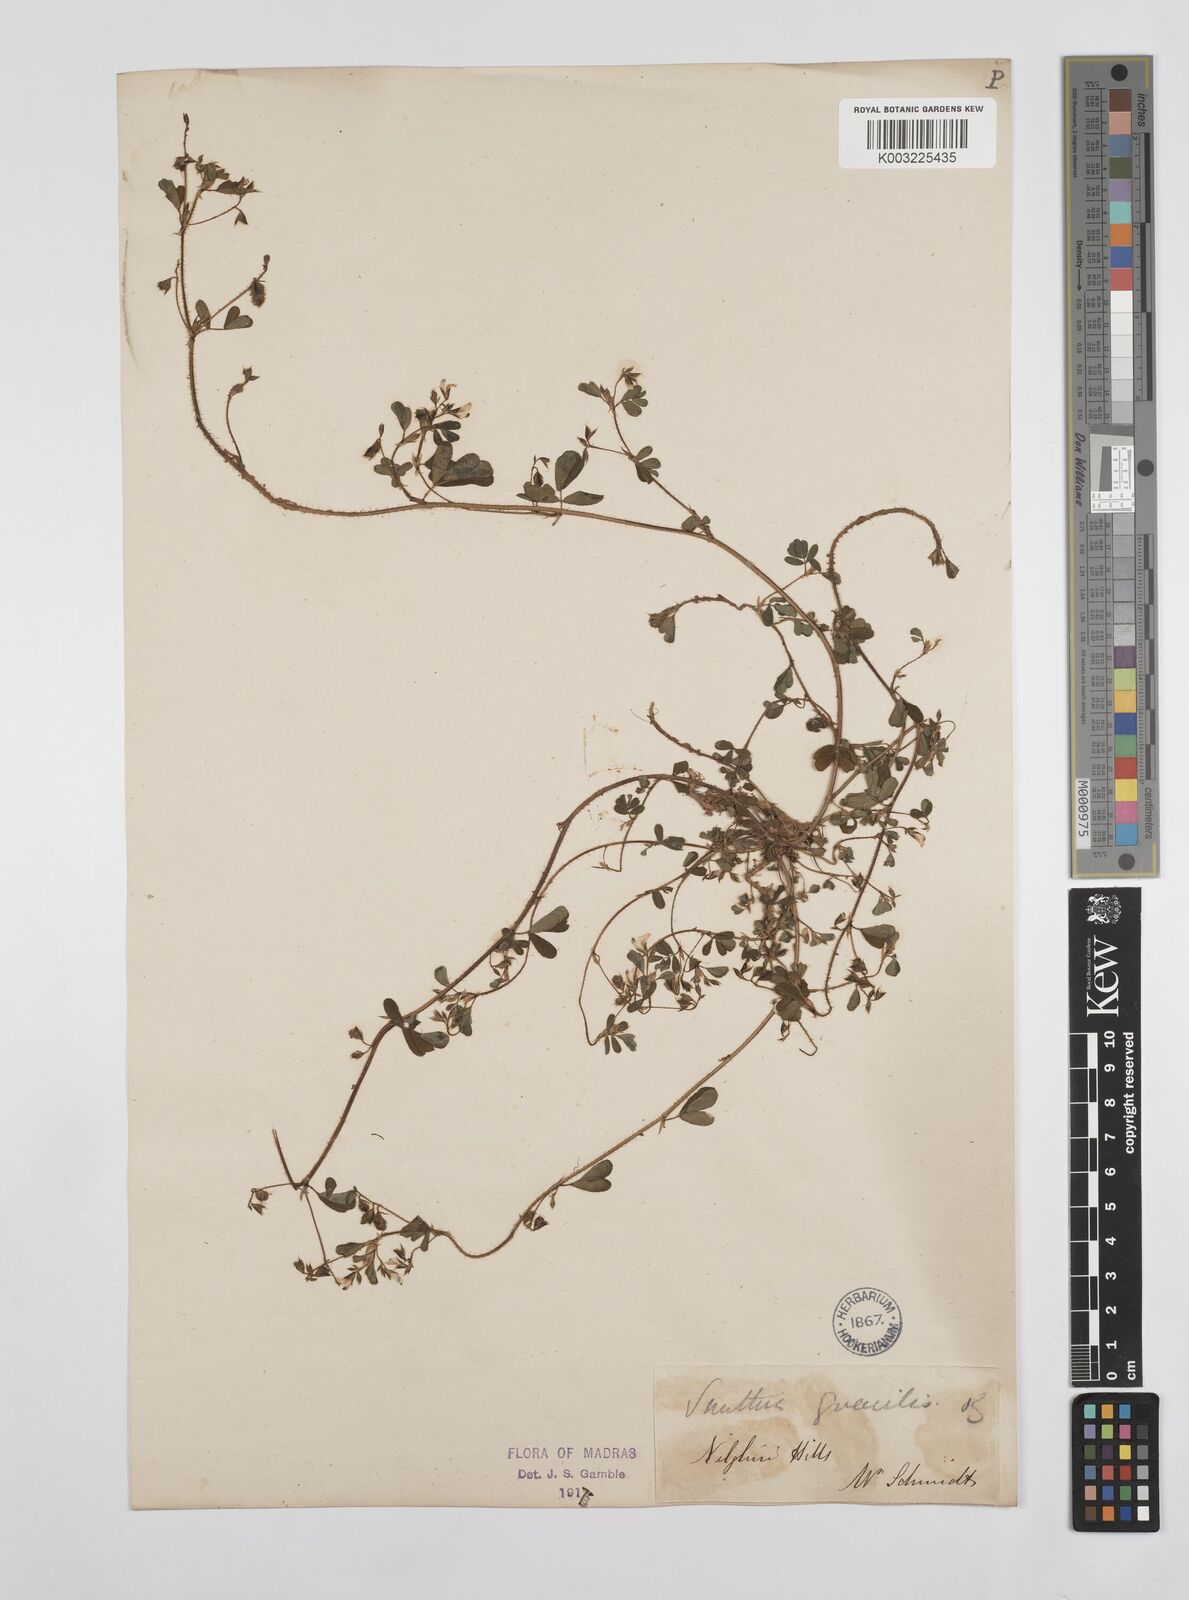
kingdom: Plantae
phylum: Tracheophyta
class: Magnoliopsida
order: Fabales
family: Fabaceae
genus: Smithia
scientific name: Smithia gracilis
